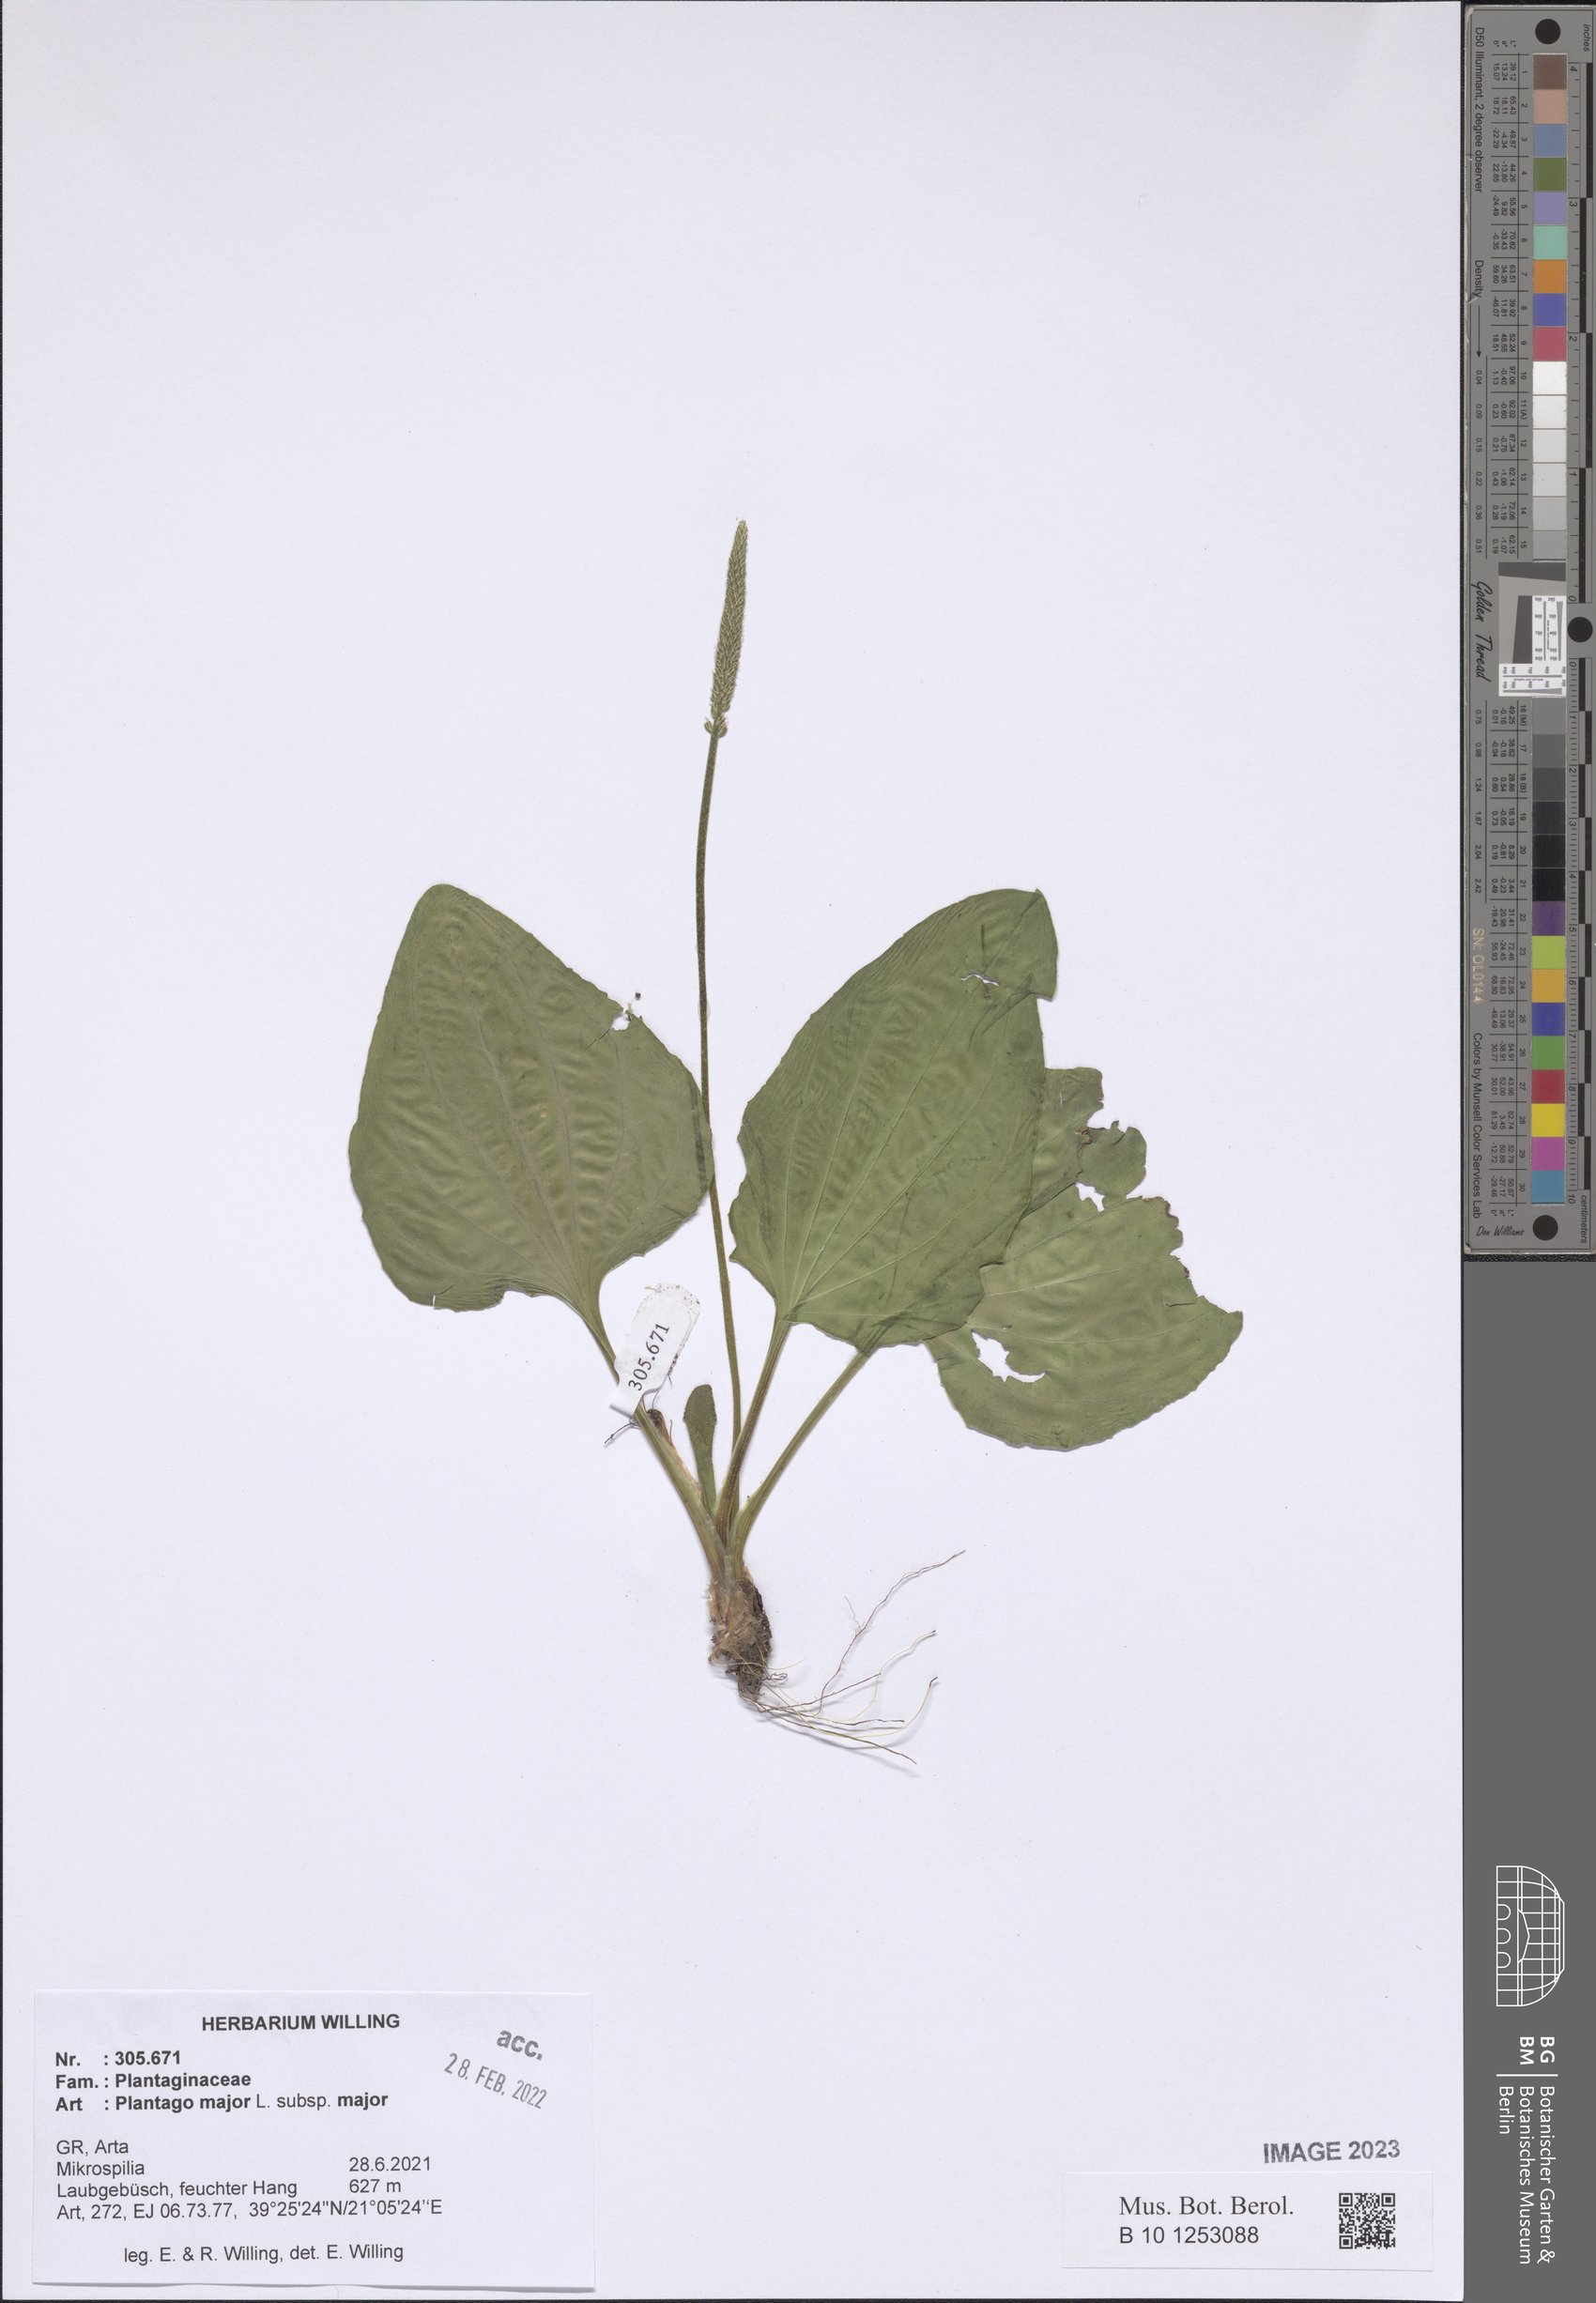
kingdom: Plantae
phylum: Tracheophyta
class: Magnoliopsida
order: Lamiales
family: Plantaginaceae
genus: Plantago
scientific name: Plantago major
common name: Common plantain
